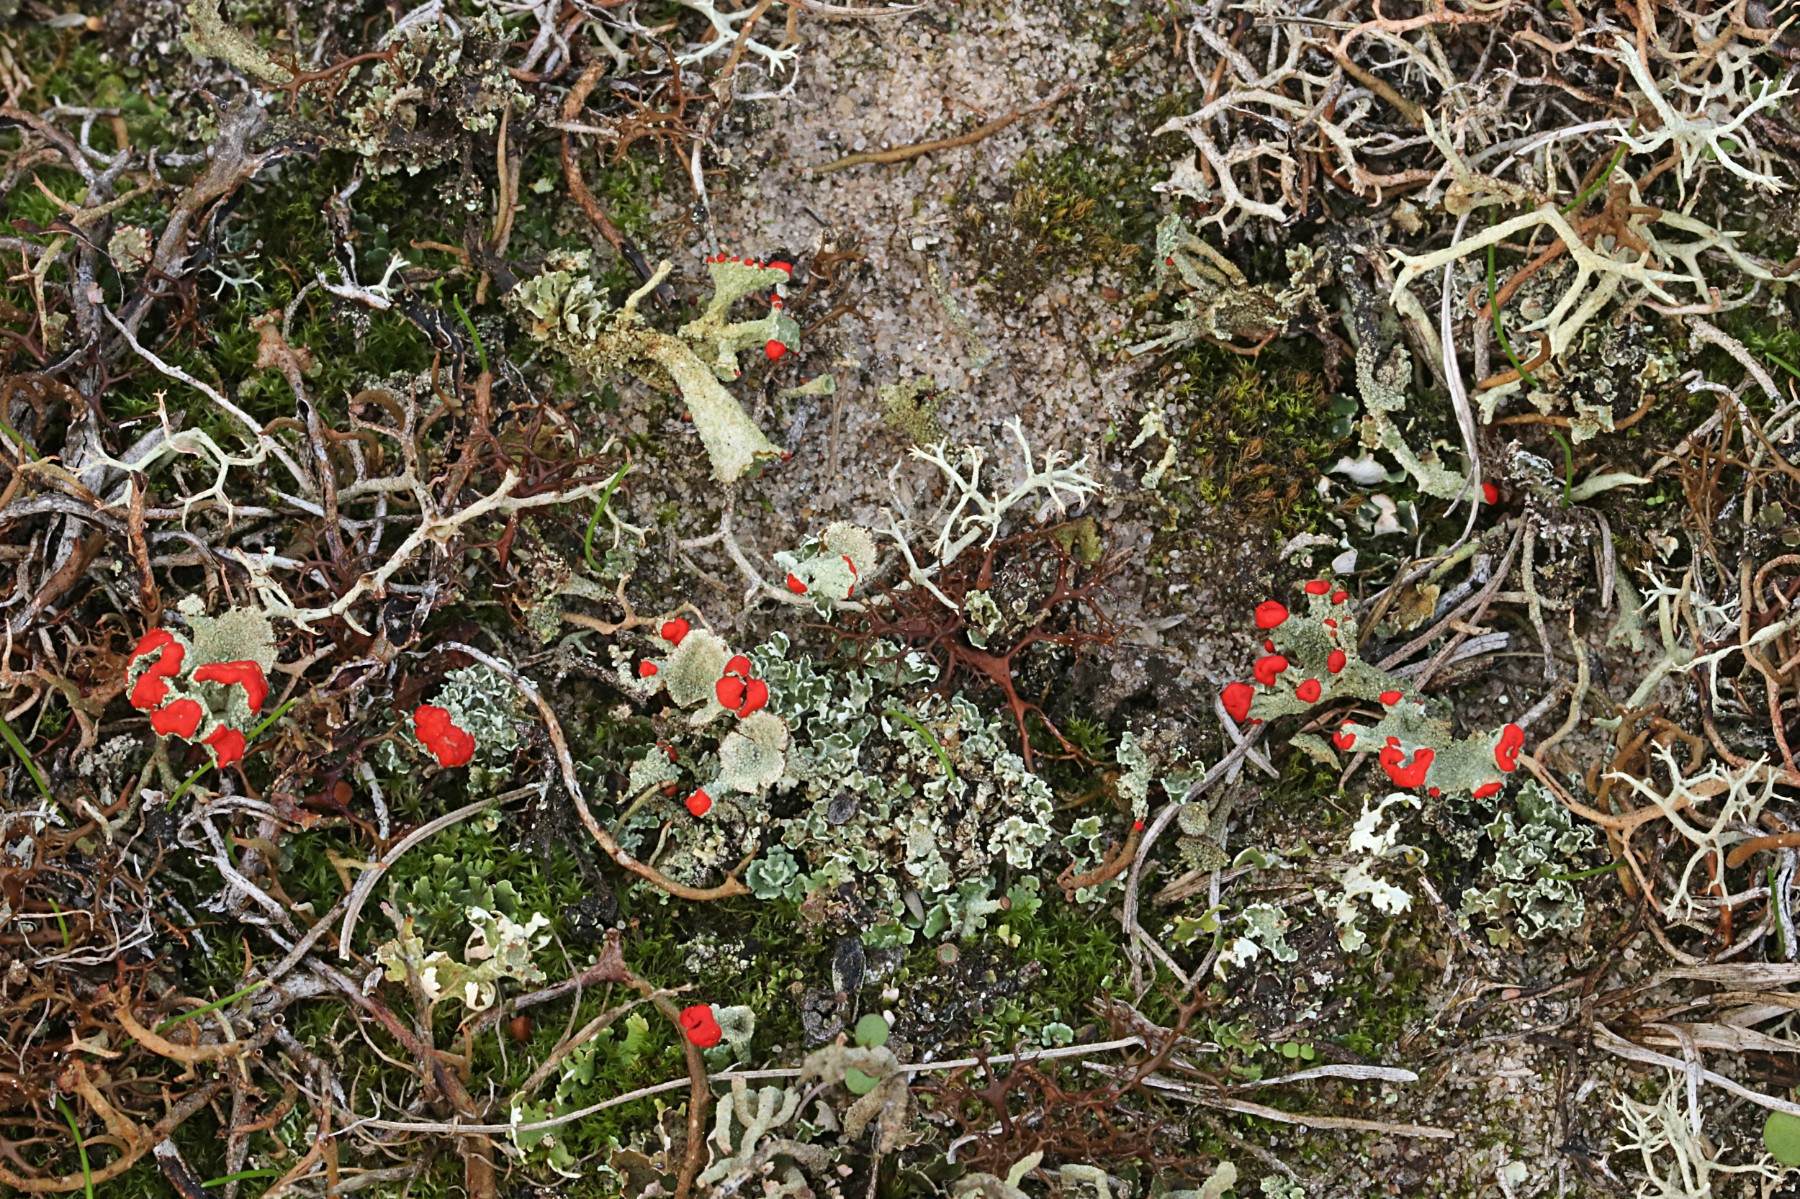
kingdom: Fungi
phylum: Ascomycota
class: Lecanoromycetes
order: Lecanorales
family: Cladoniaceae
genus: Cladonia
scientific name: Cladonia diversa
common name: rød bægerlav
